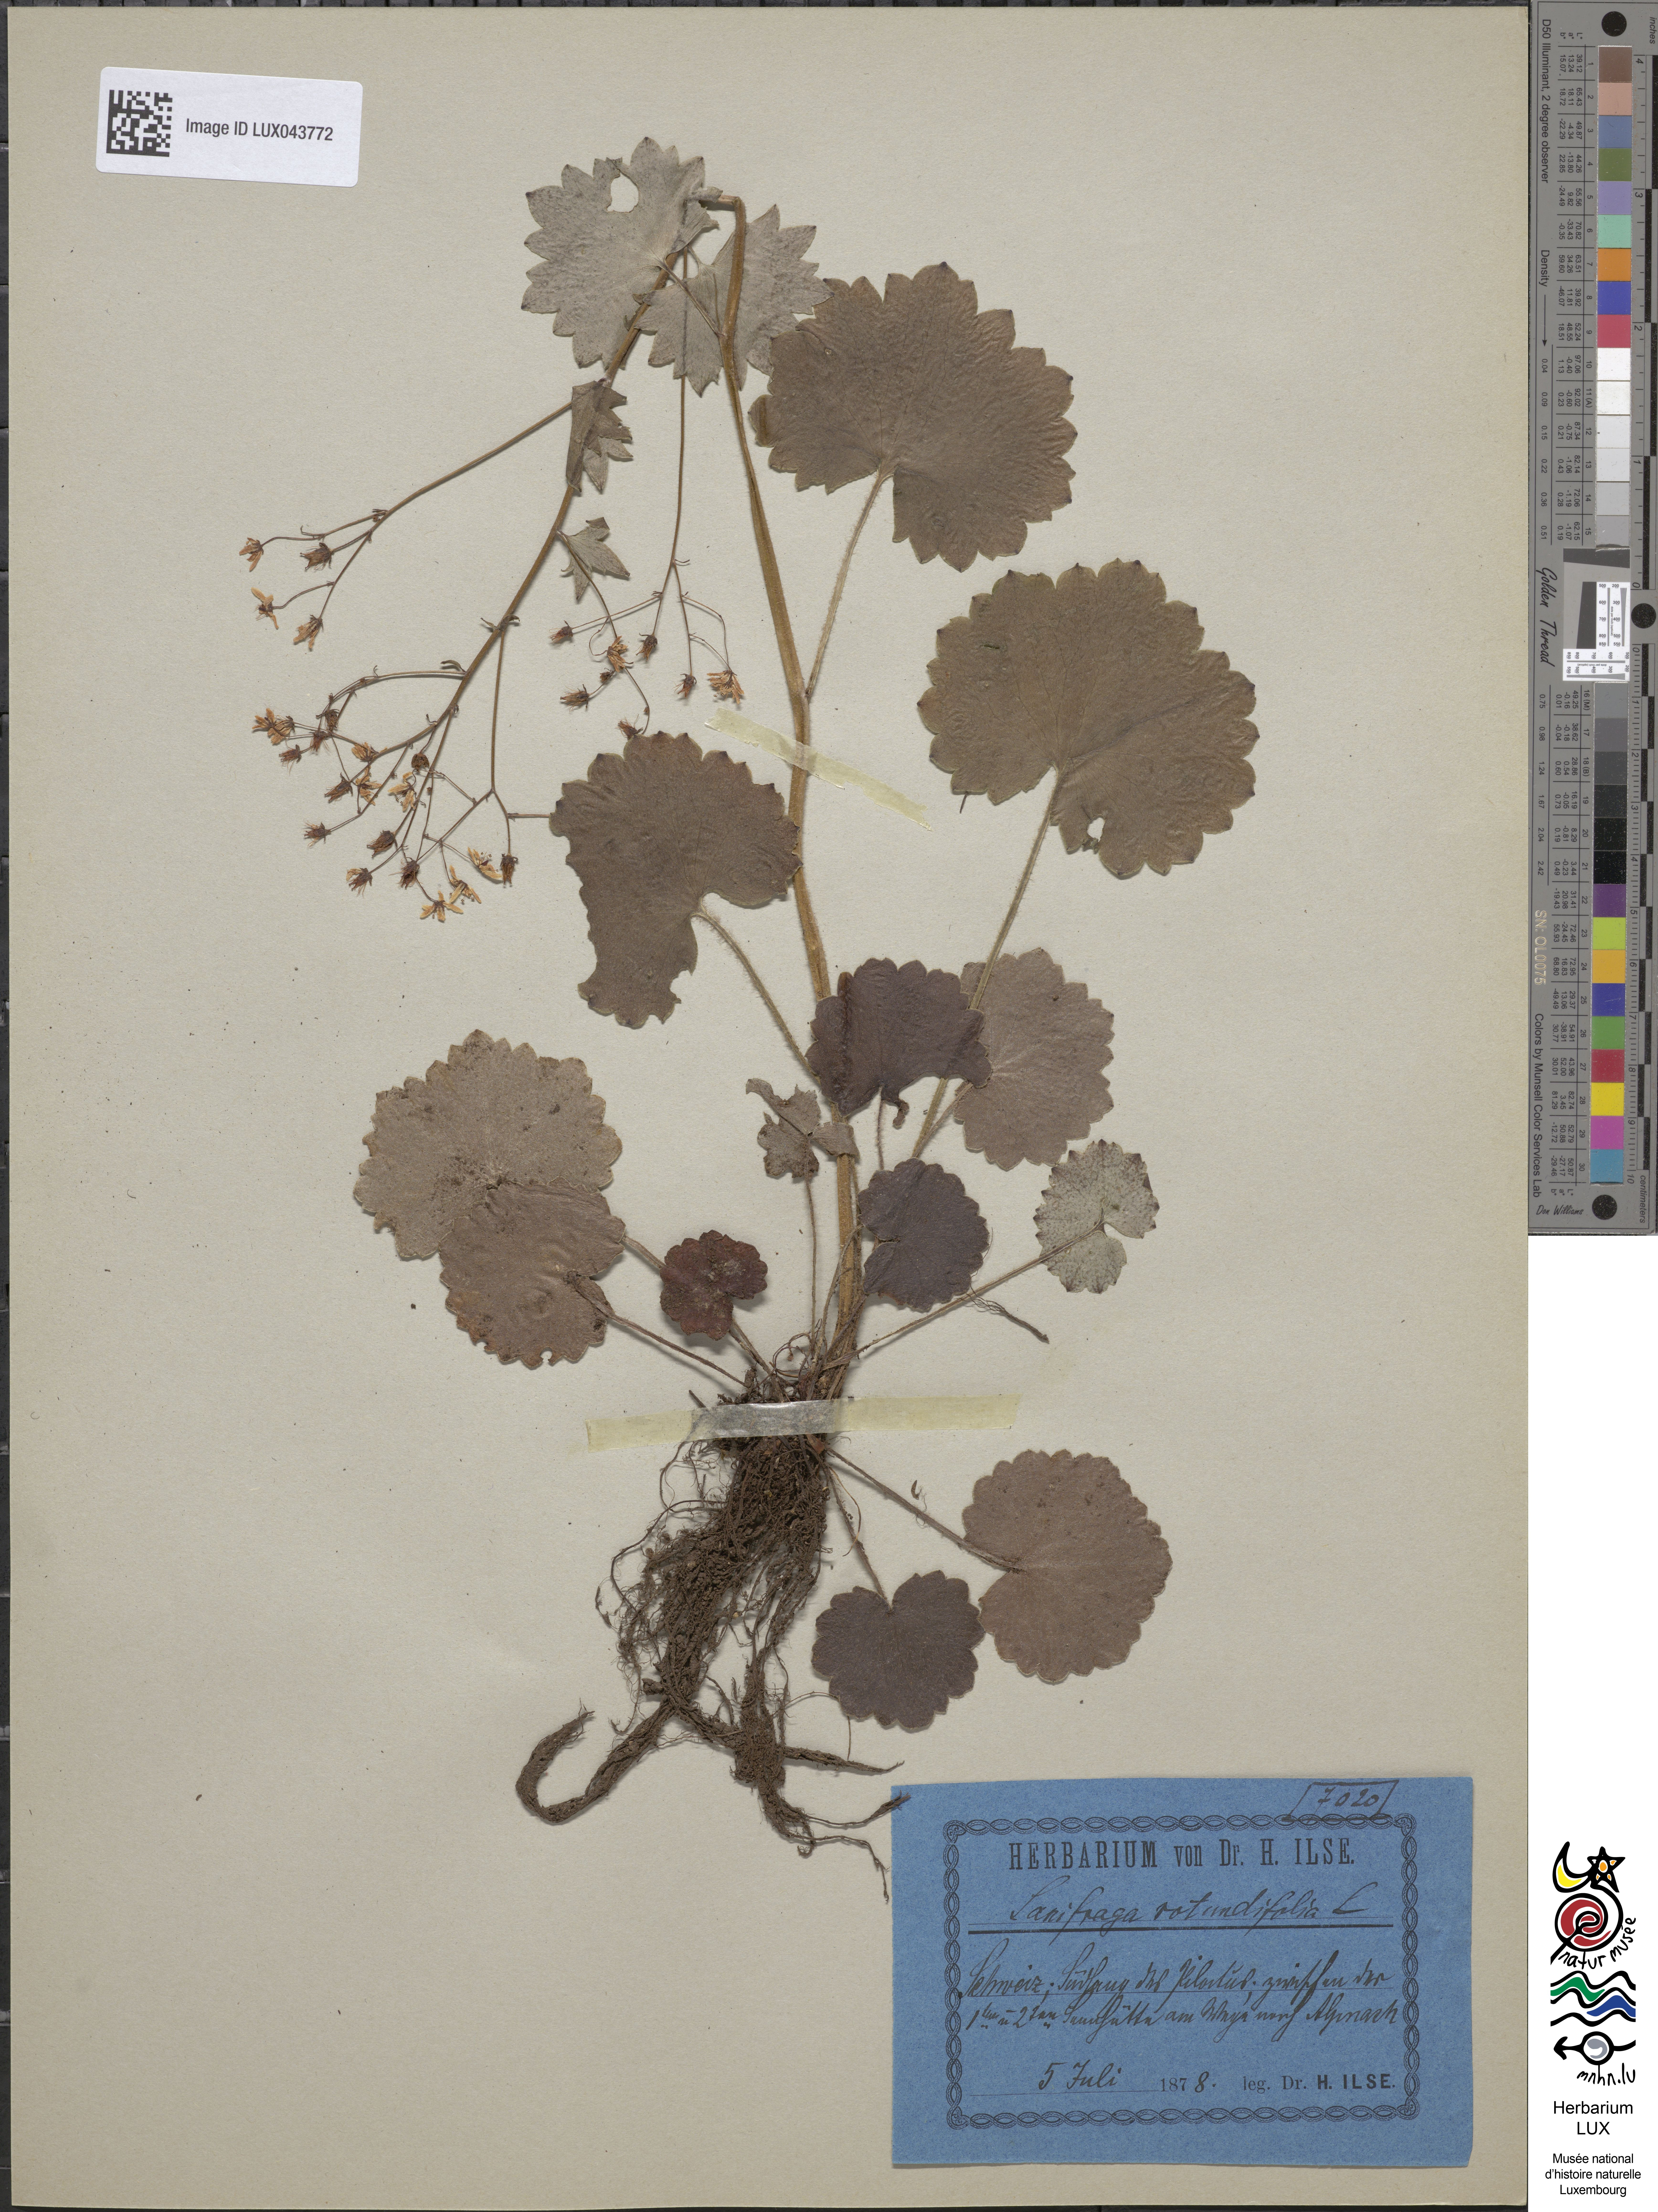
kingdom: Plantae
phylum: Tracheophyta
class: Magnoliopsida
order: Saxifragales
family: Saxifragaceae
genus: Saxifraga
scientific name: Saxifraga rotundifolia
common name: Round-leaved saxifrage
